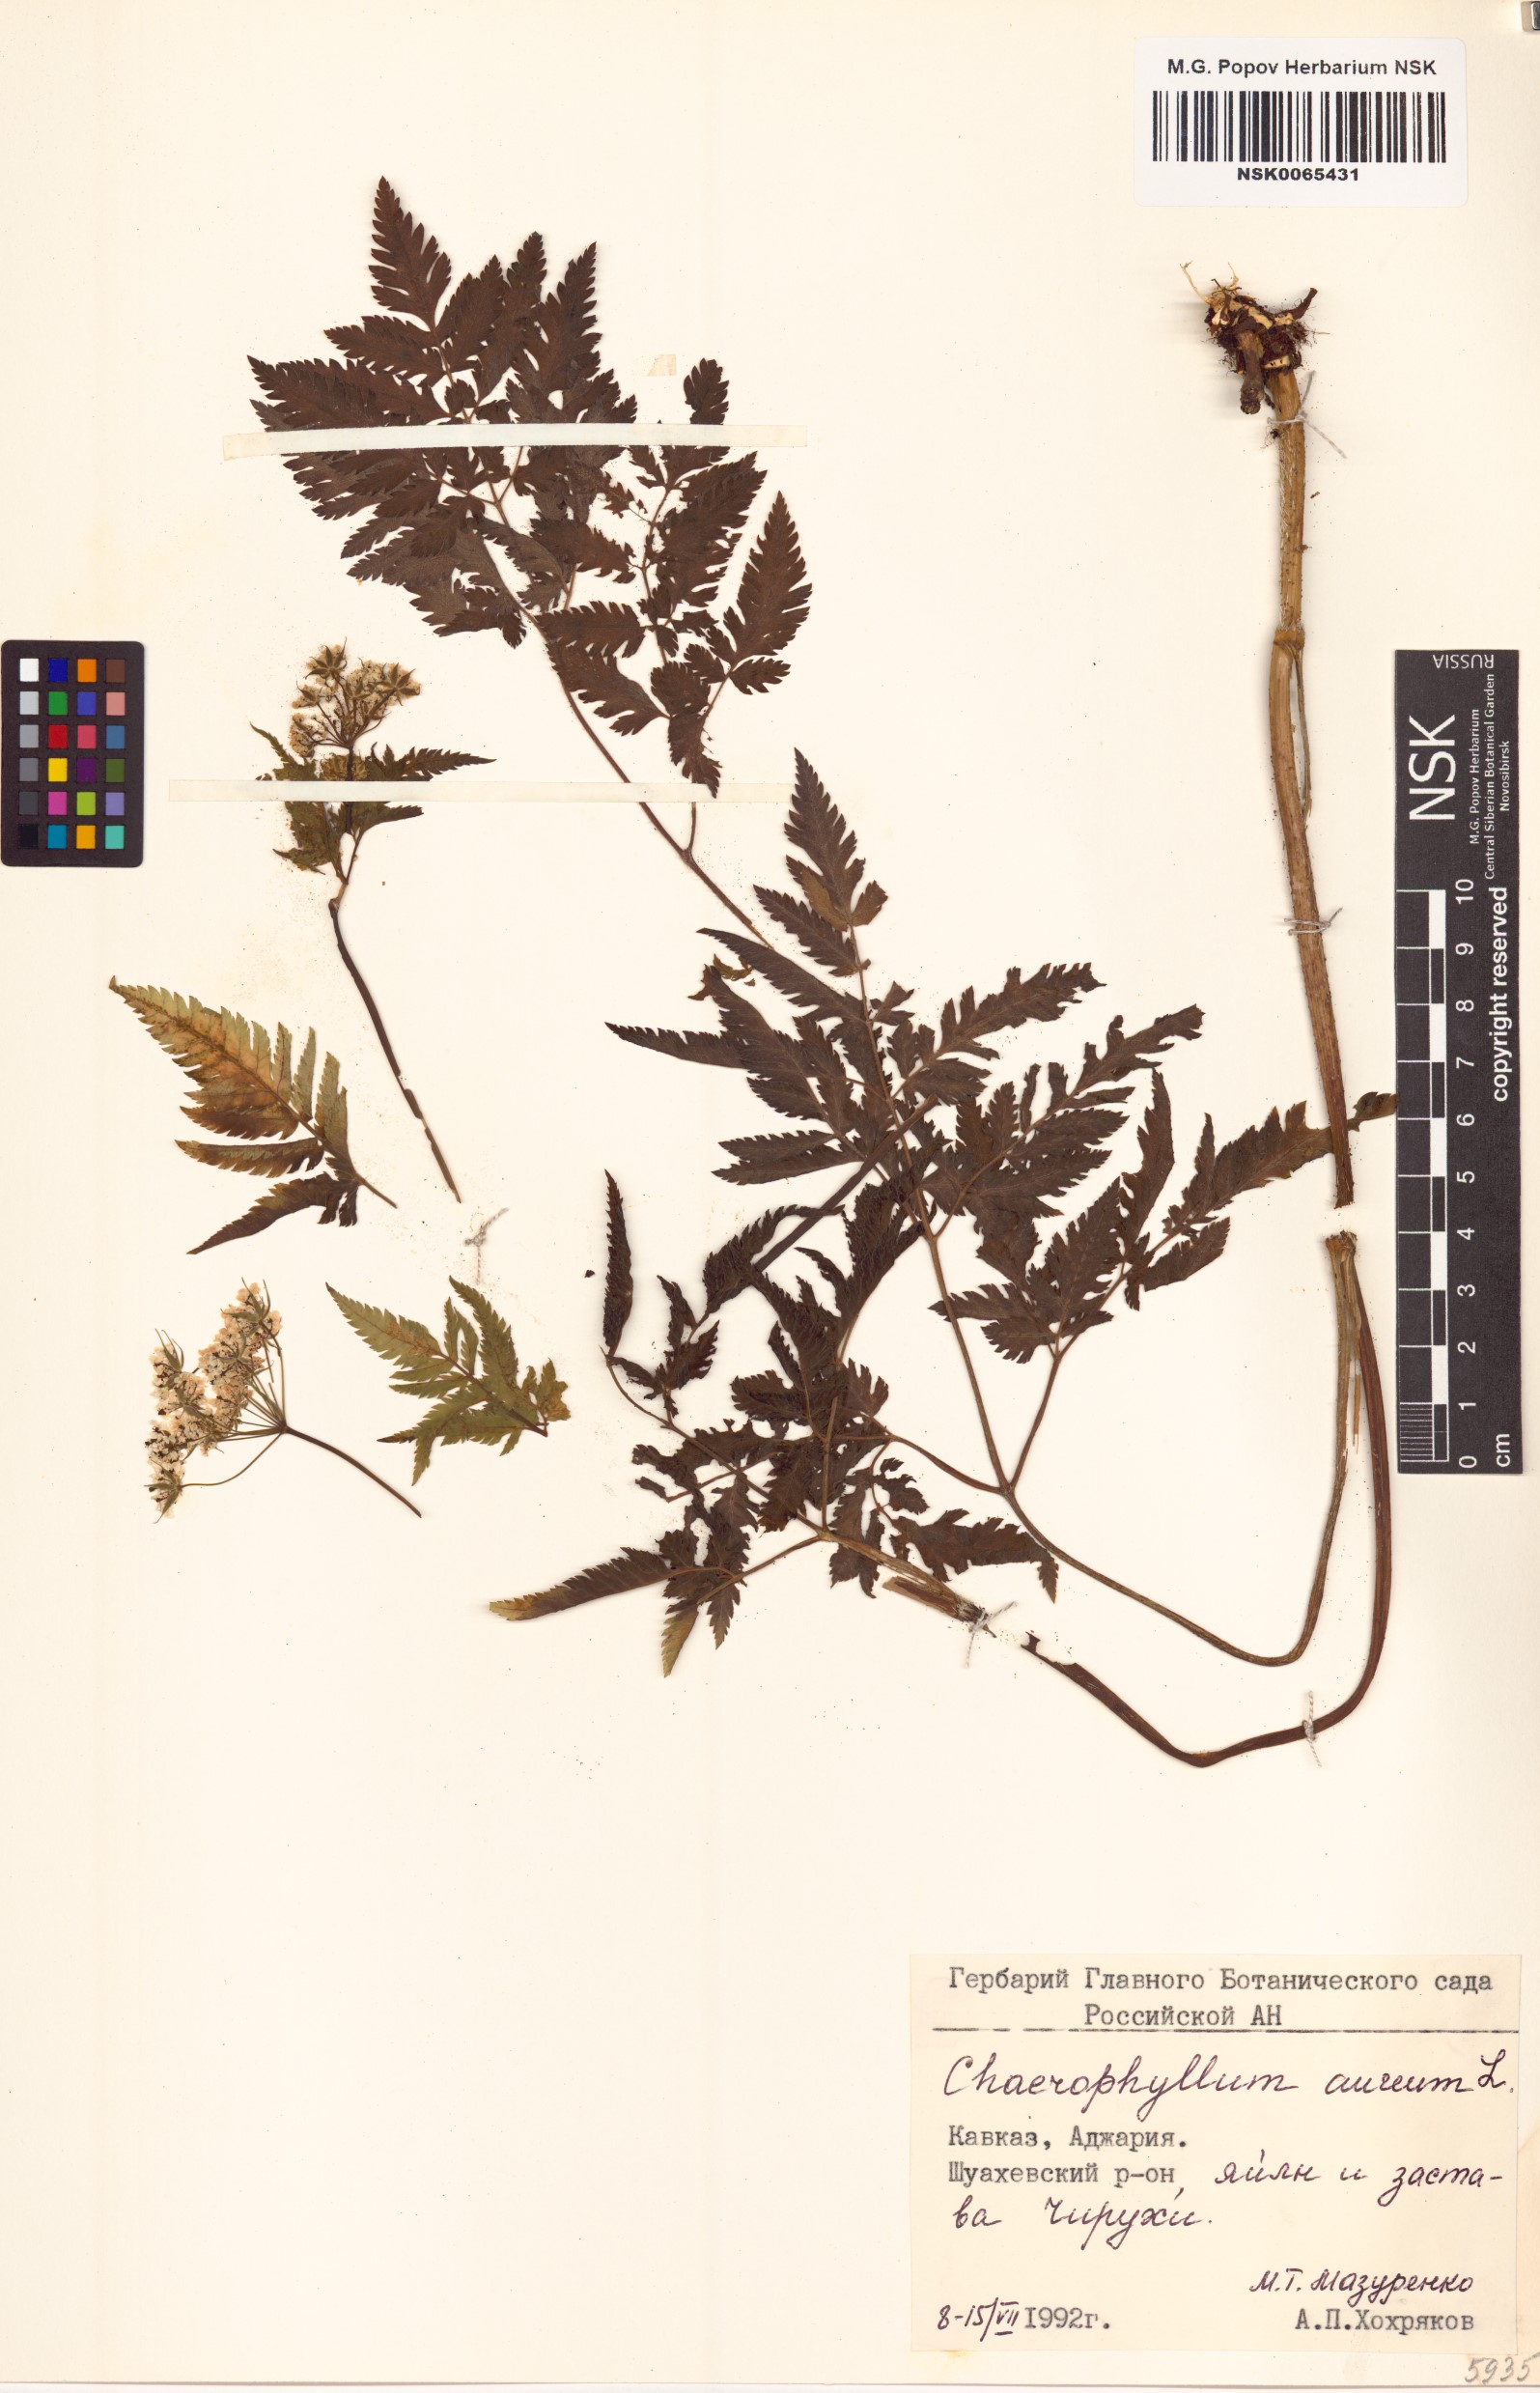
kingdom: Plantae
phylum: Tracheophyta
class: Magnoliopsida
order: Apiales
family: Apiaceae
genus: Chaerophyllum
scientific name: Chaerophyllum aureum
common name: Golden chervil
